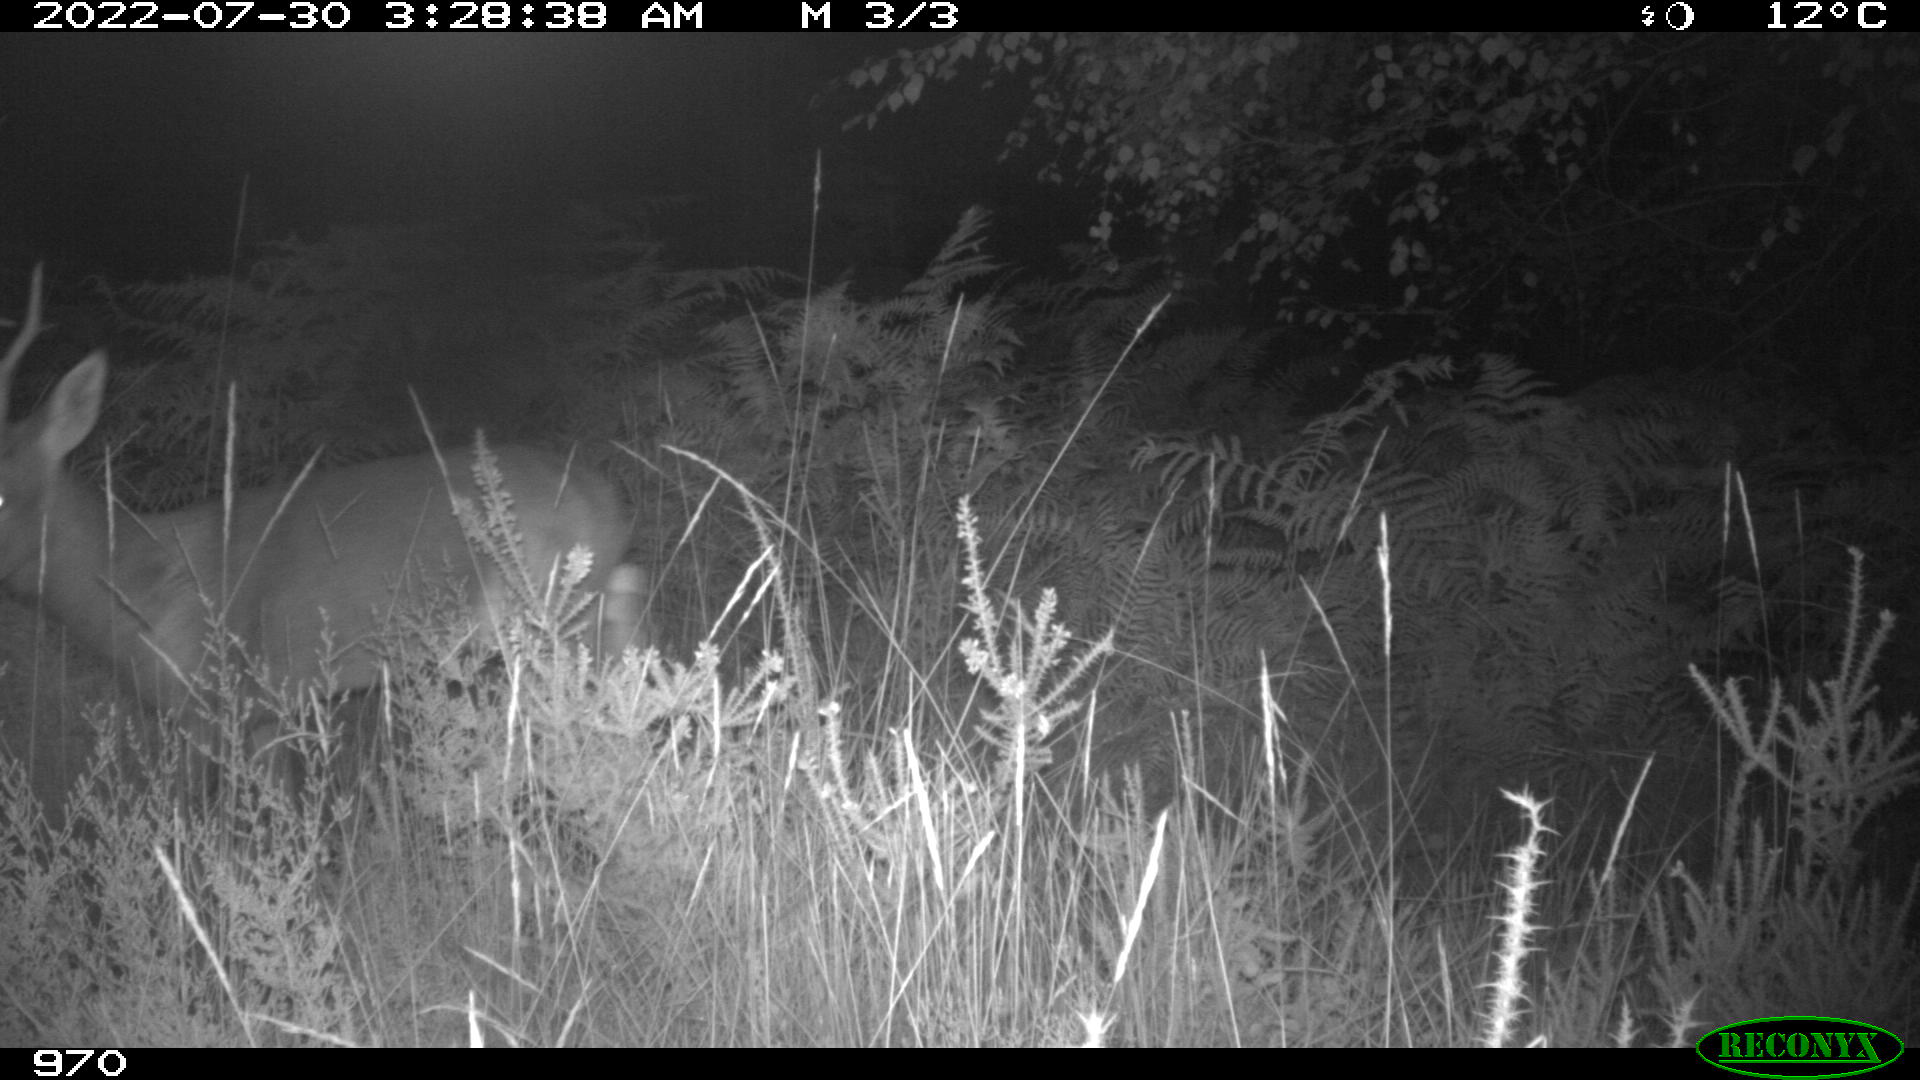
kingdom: Animalia
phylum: Chordata
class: Mammalia
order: Artiodactyla
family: Cervidae
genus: Capreolus
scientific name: Capreolus capreolus
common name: Western roe deer
